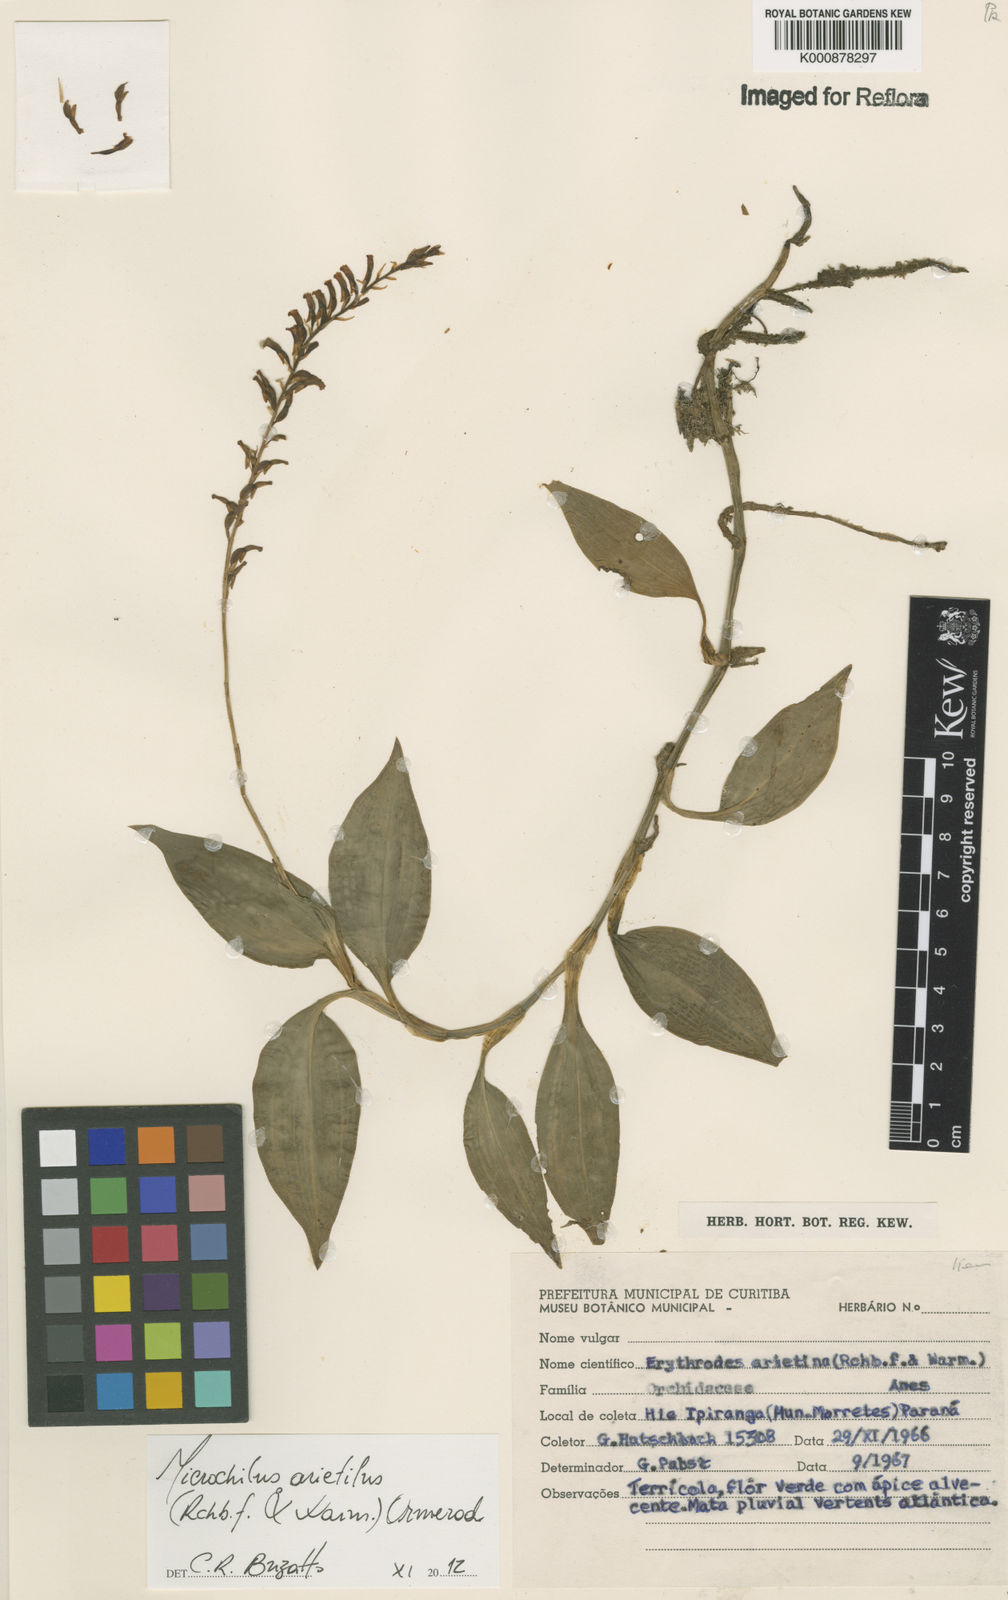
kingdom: Plantae
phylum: Tracheophyta
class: Liliopsida
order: Asparagales
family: Orchidaceae
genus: Microchilus
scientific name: Microchilus arietinus
